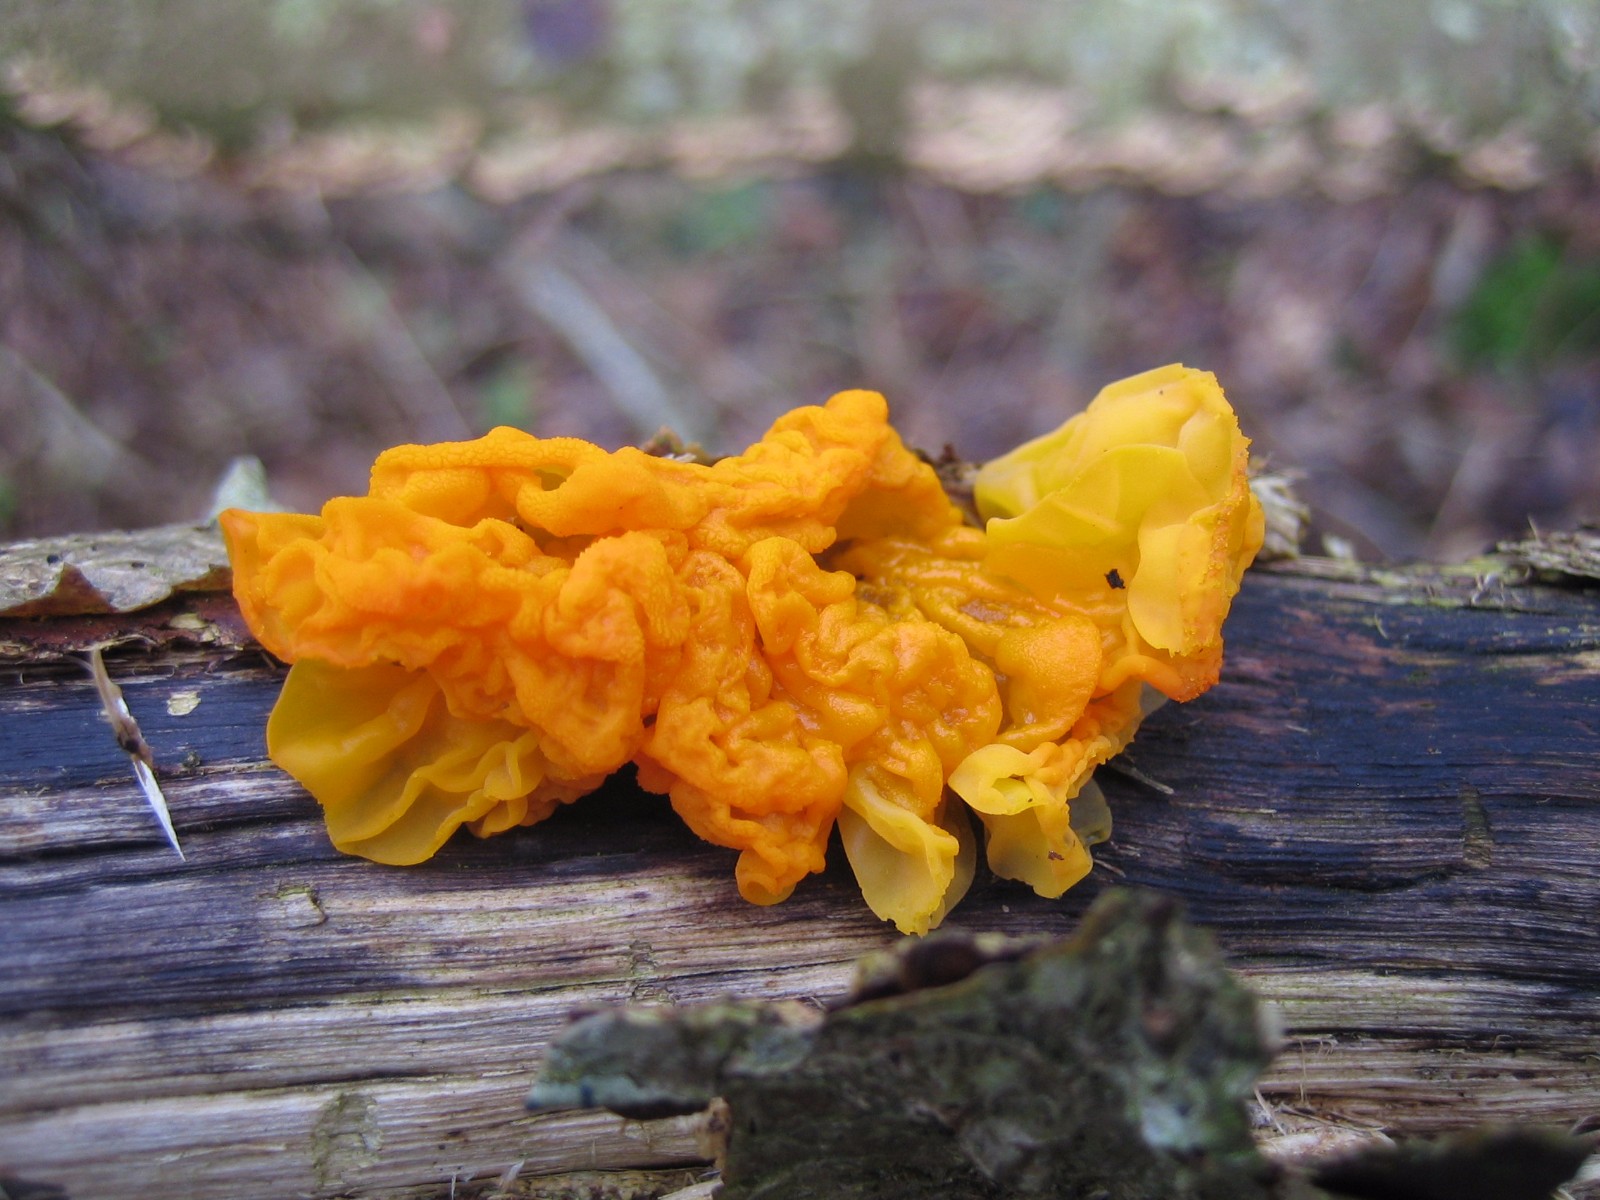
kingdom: Fungi
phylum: Basidiomycota
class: Tremellomycetes
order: Tremellales
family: Tremellaceae
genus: Tremella
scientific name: Tremella mesenterica
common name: gul bævresvamp
